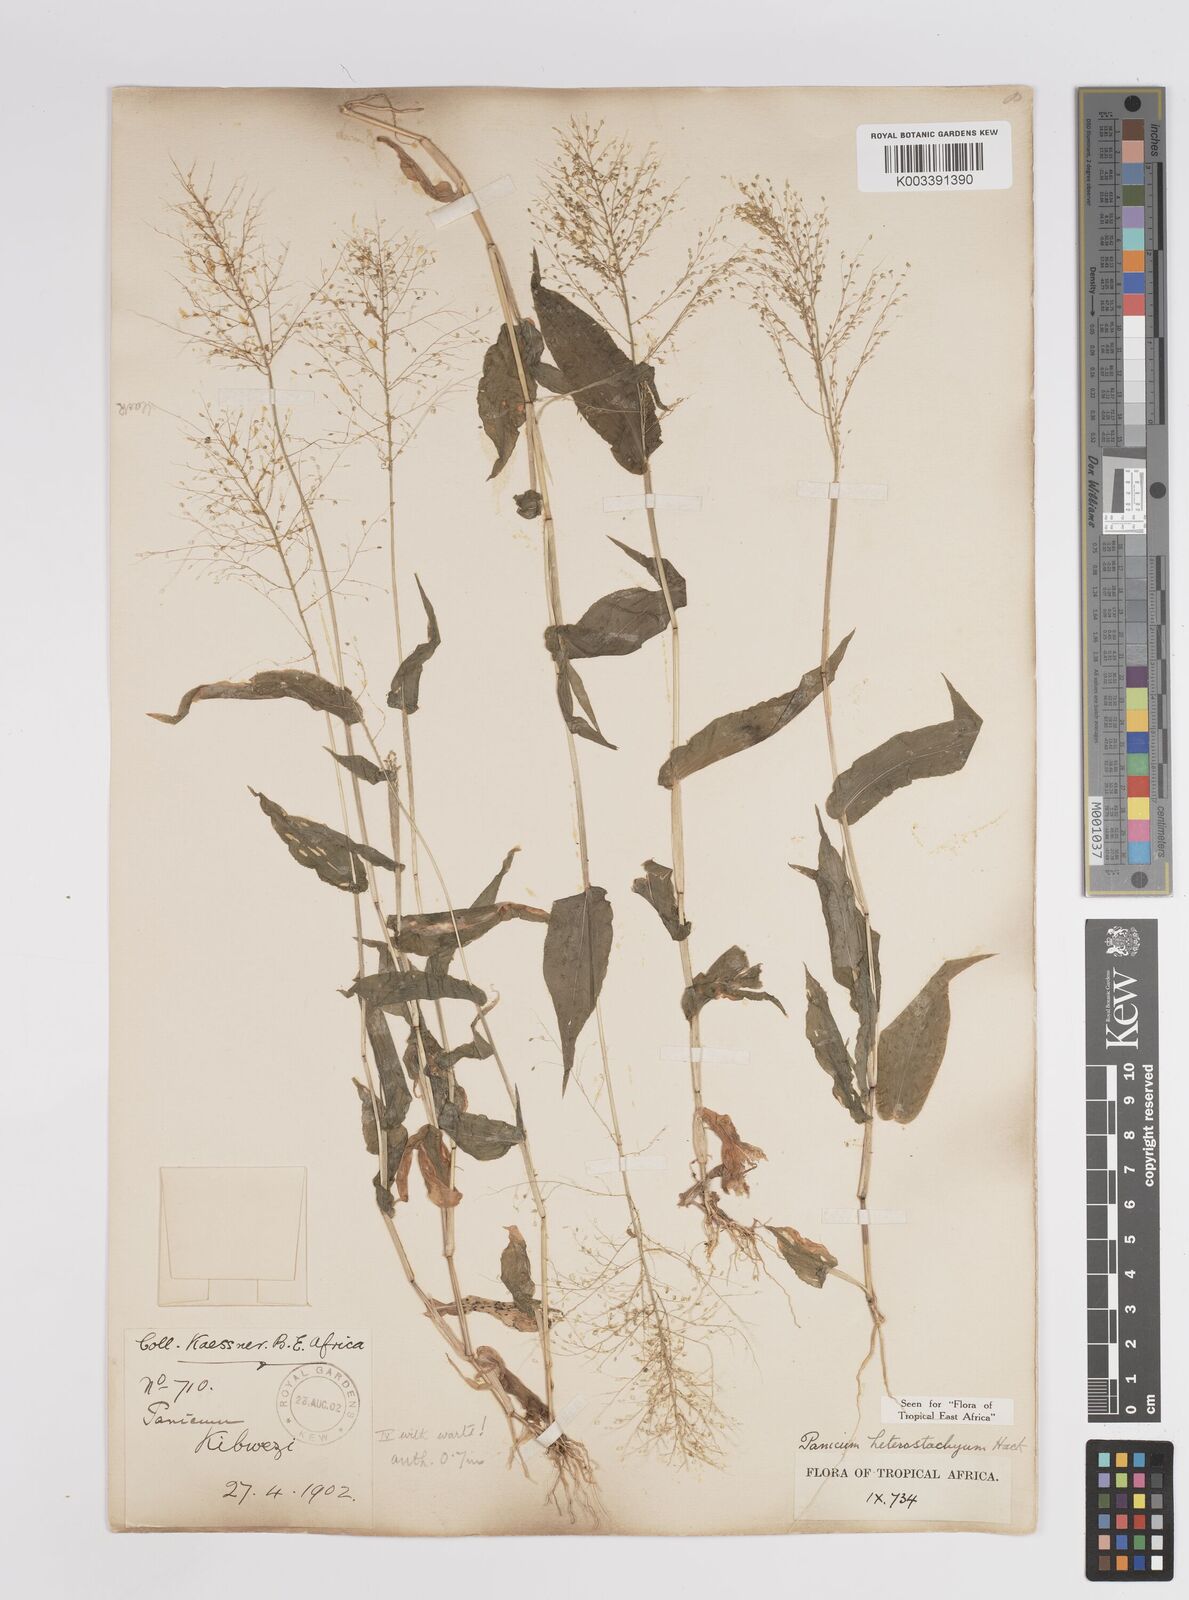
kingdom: Plantae
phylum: Tracheophyta
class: Liliopsida
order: Poales
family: Poaceae
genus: Panicum
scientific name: Panicum hirtum
